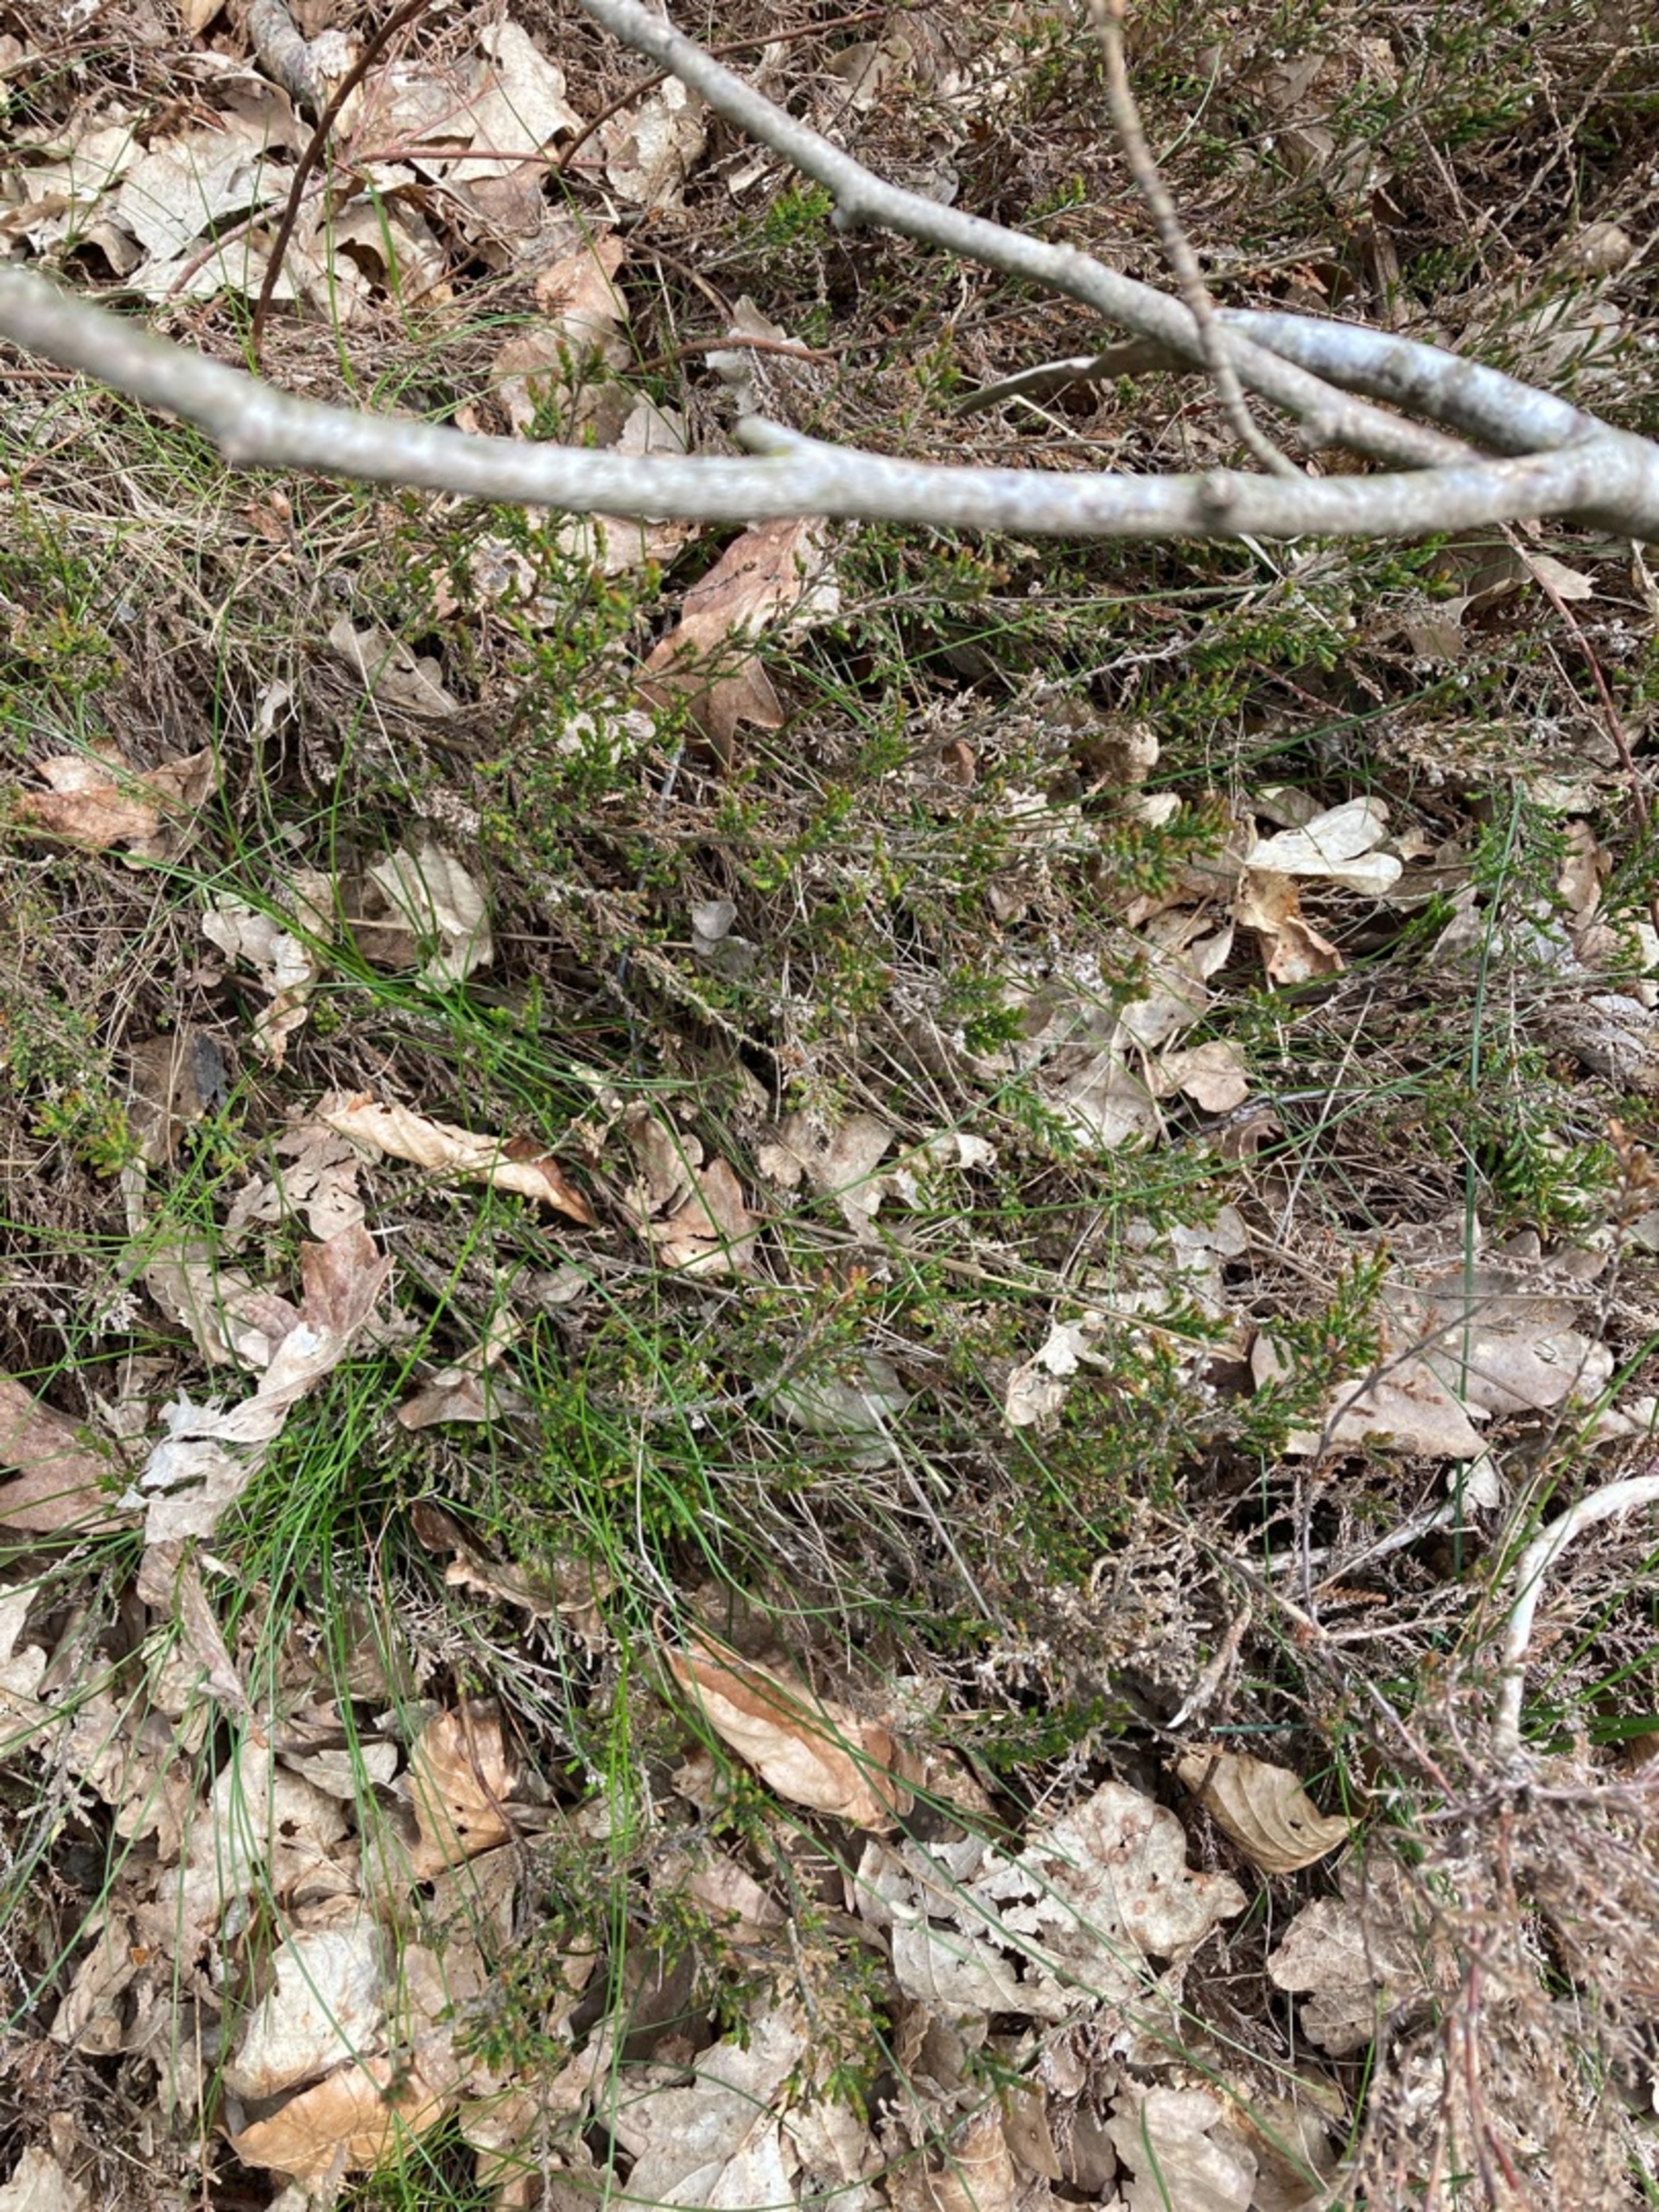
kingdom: Plantae
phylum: Tracheophyta
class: Magnoliopsida
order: Ericales
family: Ericaceae
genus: Calluna
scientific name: Calluna vulgaris
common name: Hedelyng
